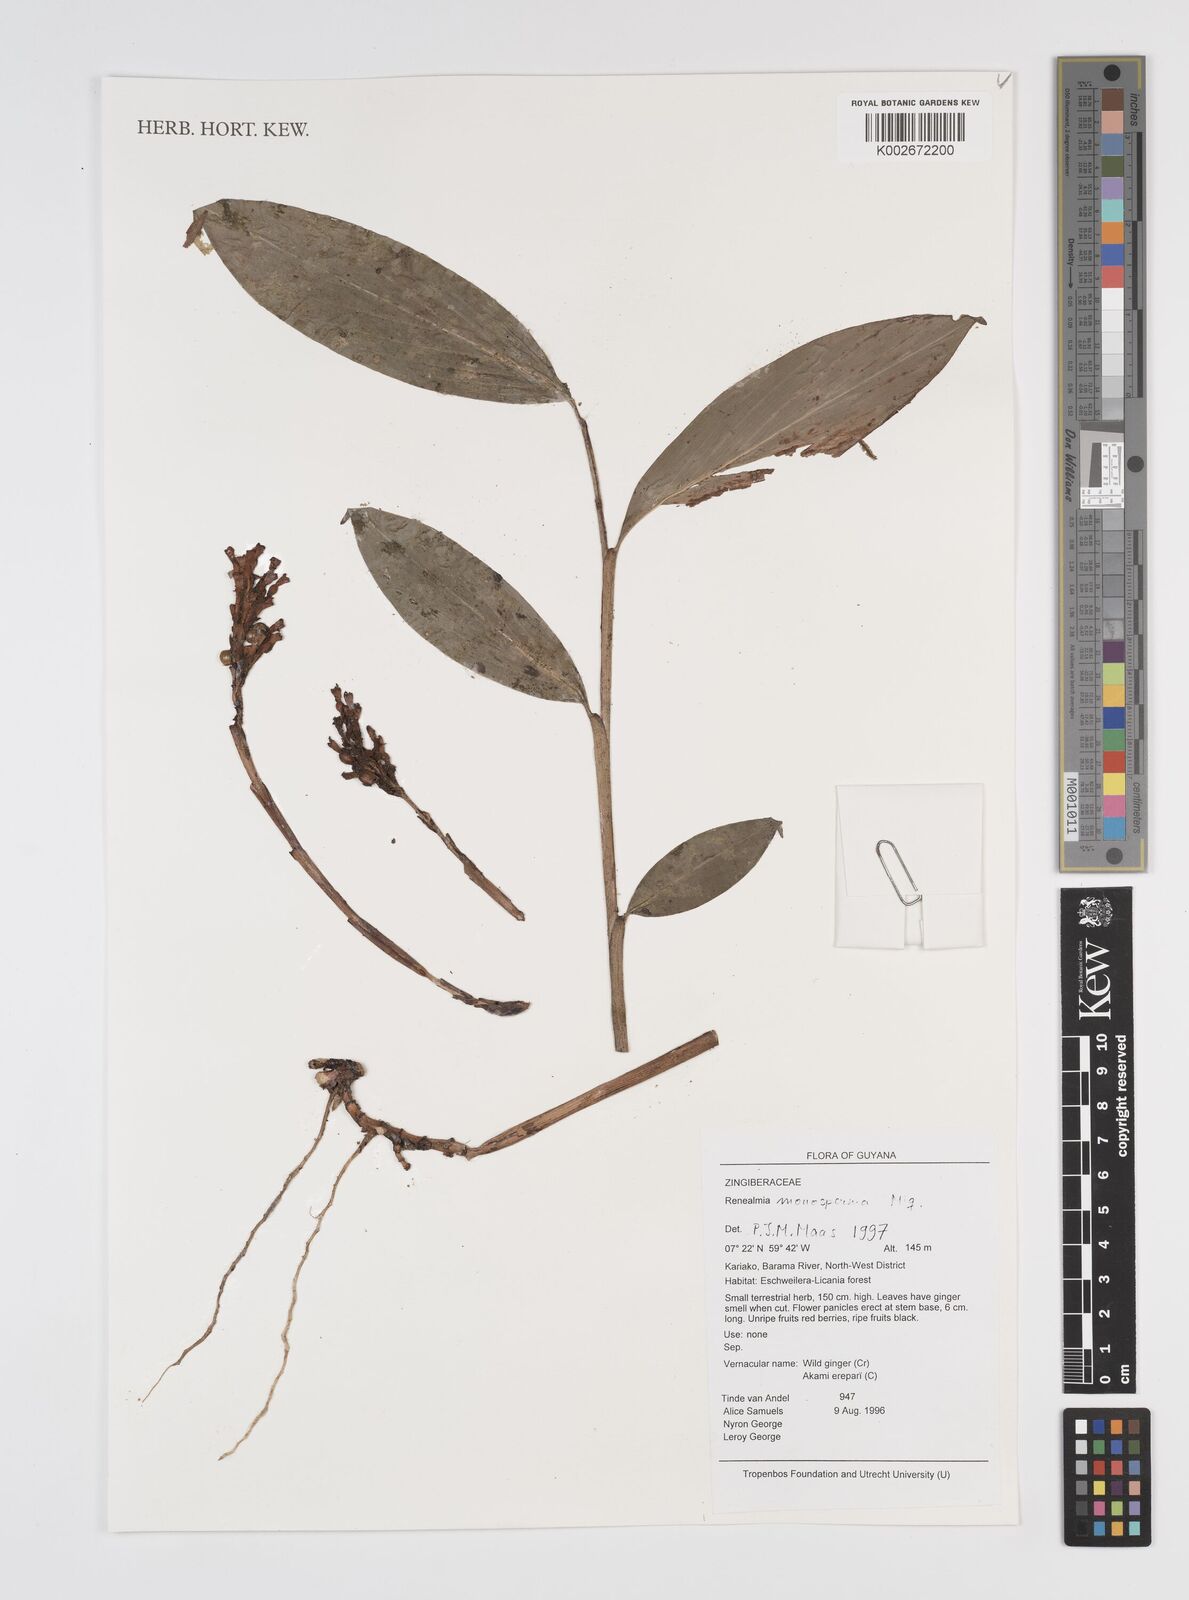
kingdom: Plantae
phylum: Tracheophyta
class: Liliopsida
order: Zingiberales
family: Zingiberaceae
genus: Renealmia
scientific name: Renealmia monosperma
